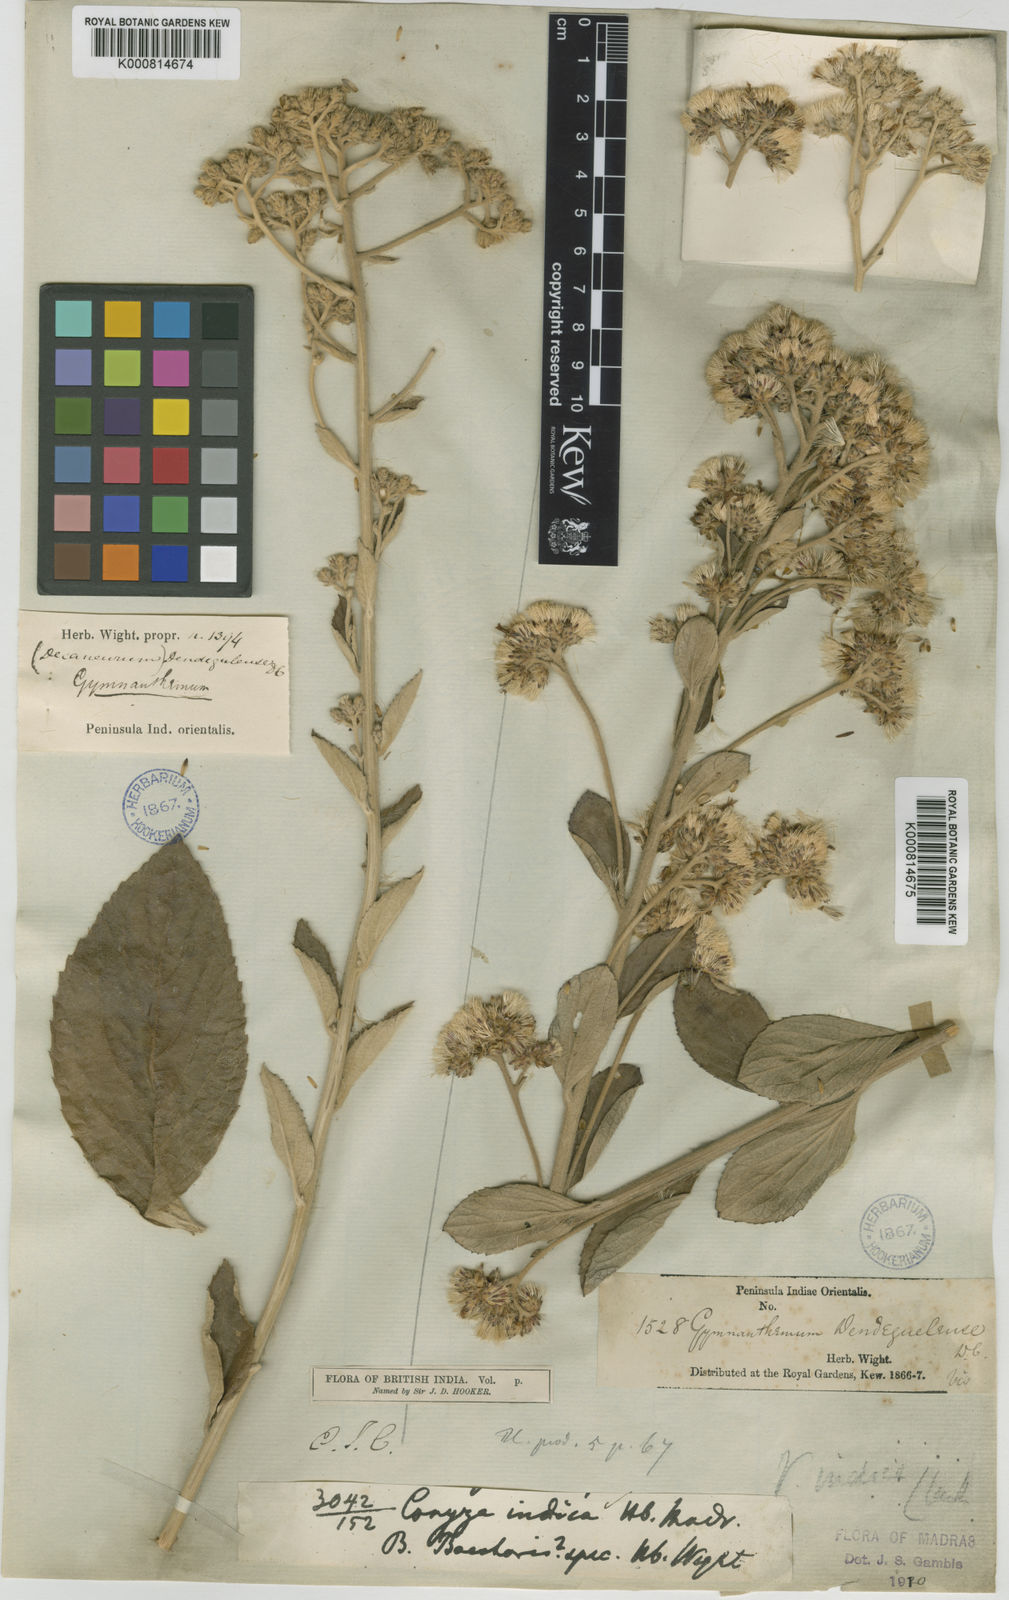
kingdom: Plantae
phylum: Tracheophyta
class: Magnoliopsida
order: Asterales
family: Asteraceae
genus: Acilepis
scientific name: Acilepis dendigulensis
